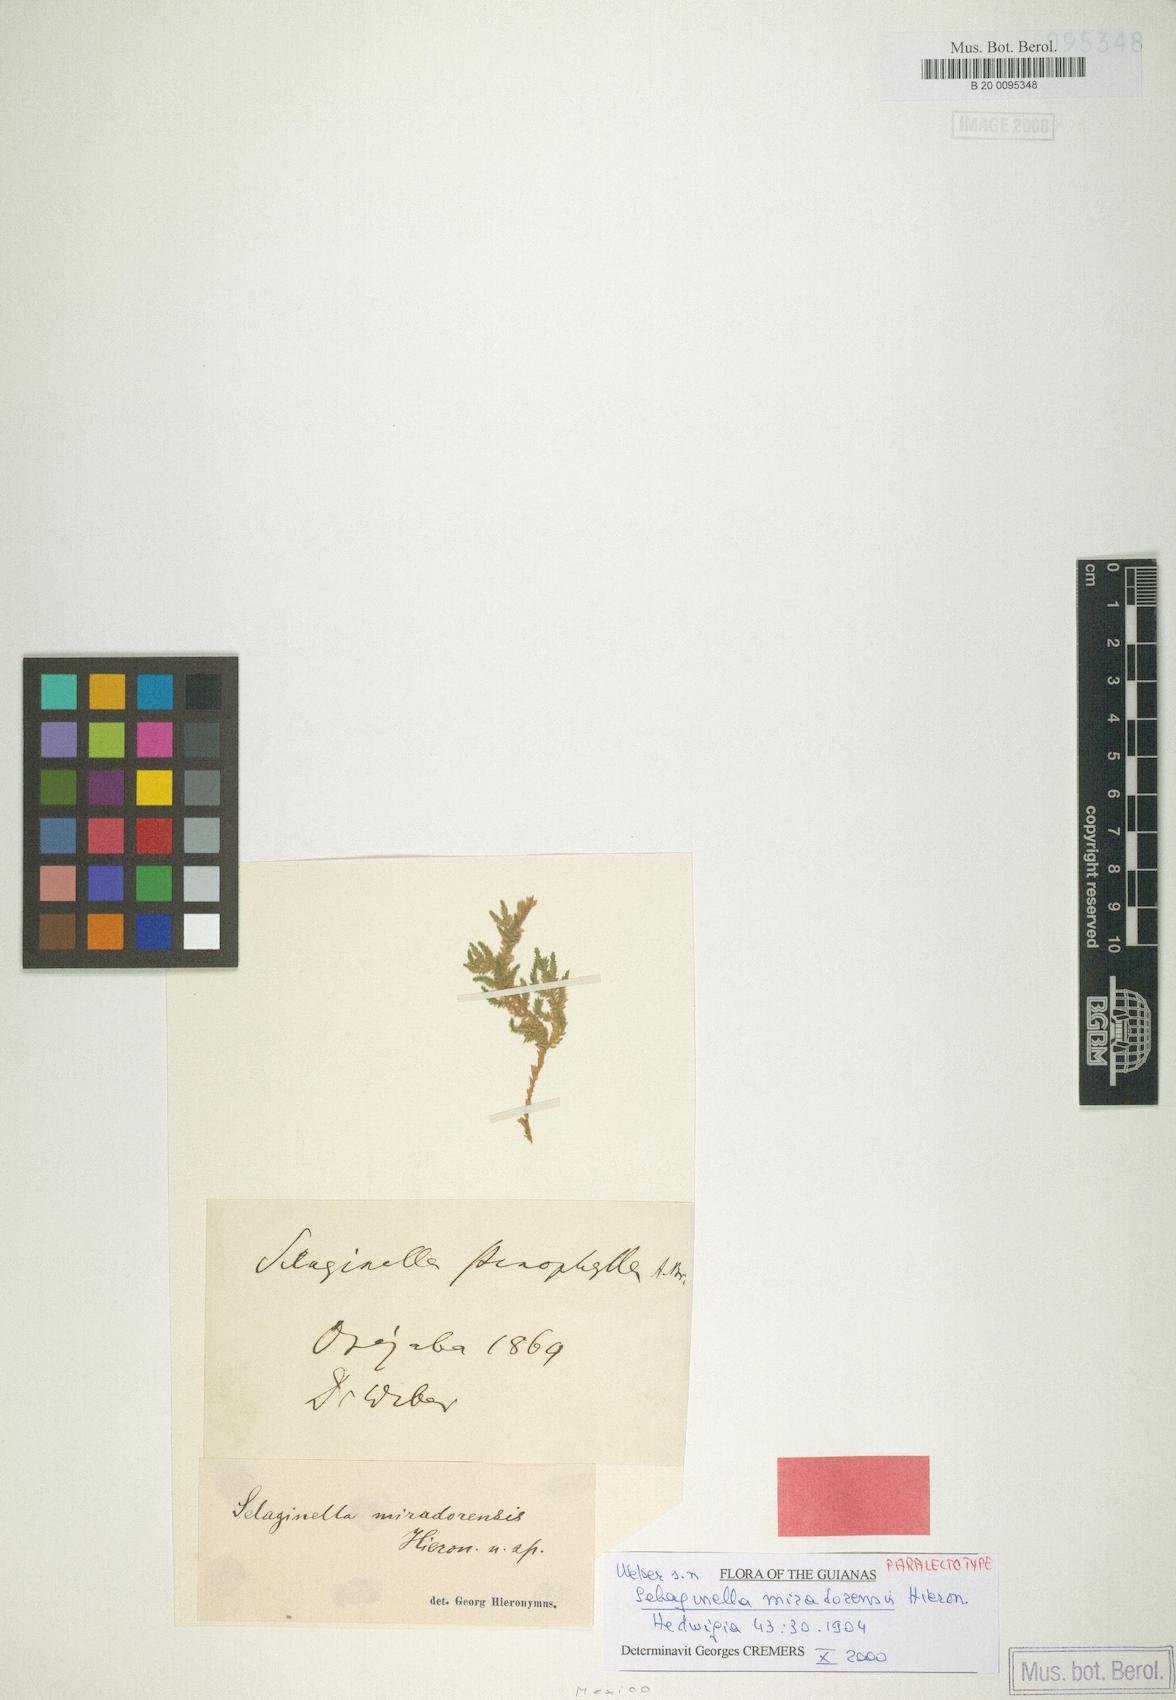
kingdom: Plantae
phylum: Tracheophyta
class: Lycopodiopsida
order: Selaginellales
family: Selaginellaceae
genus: Selaginella
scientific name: Selaginella stenophylla
